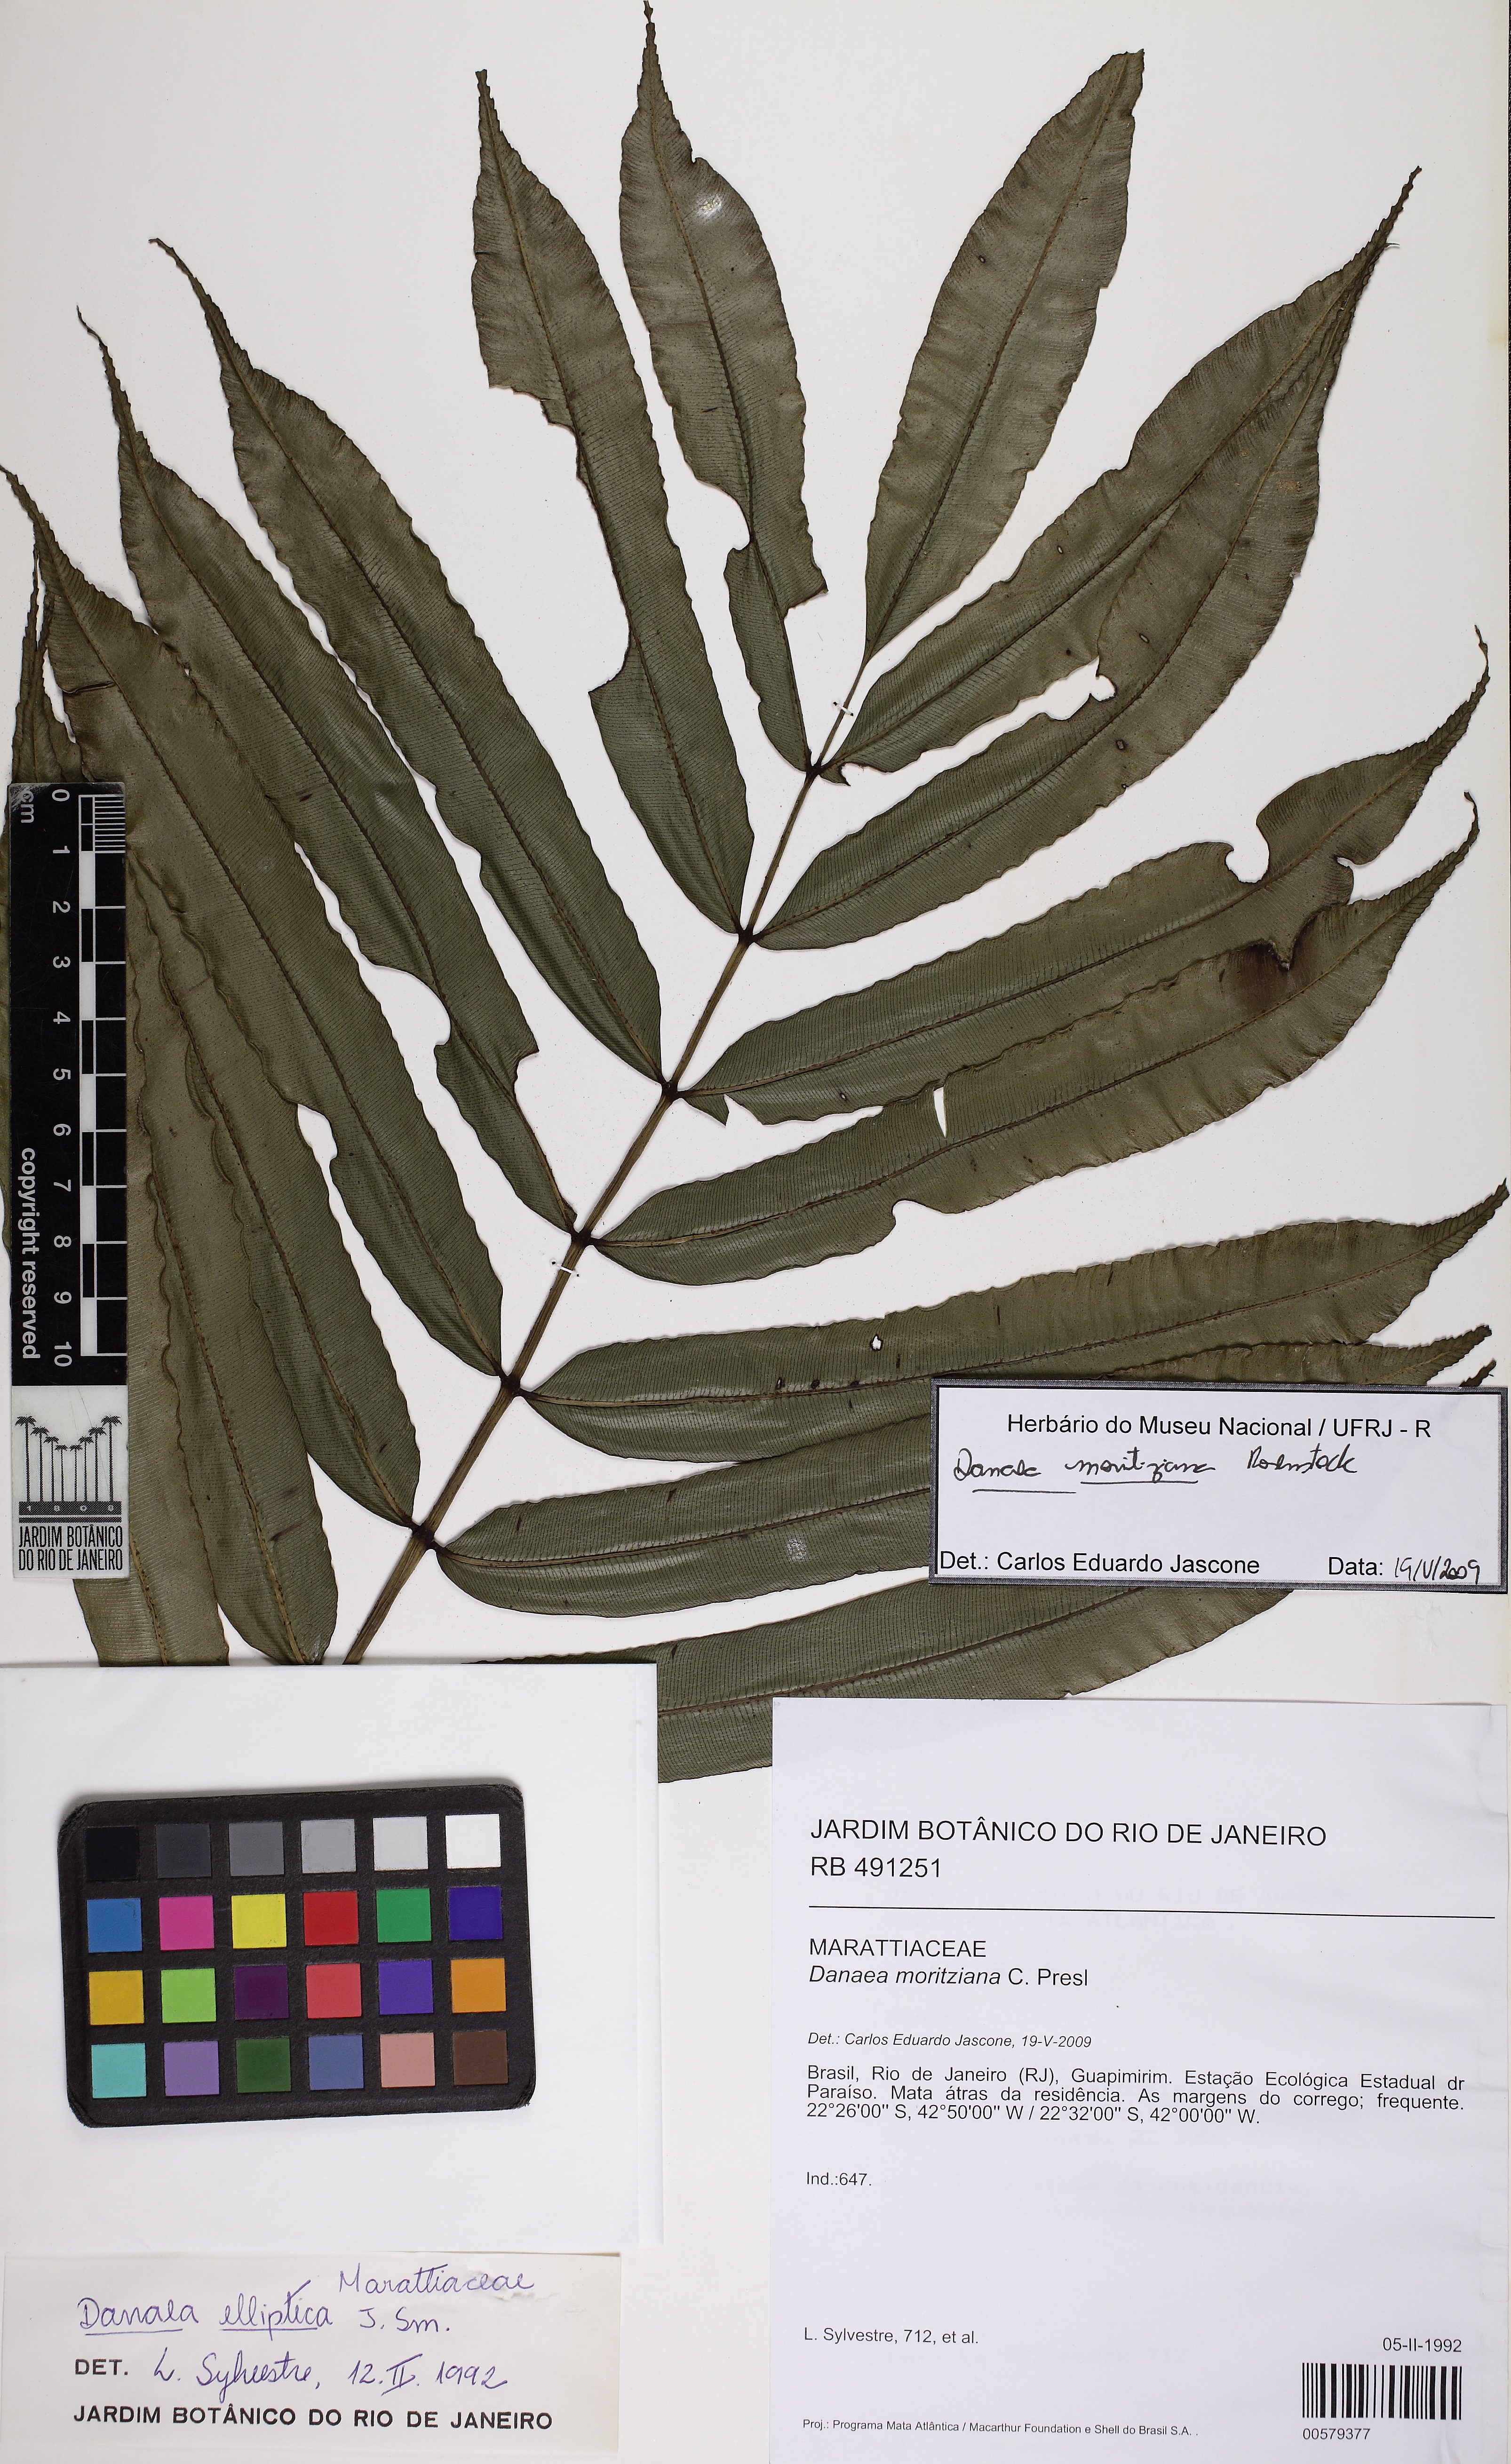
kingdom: Plantae
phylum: Tracheophyta
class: Polypodiopsida
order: Marattiales
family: Marattiaceae
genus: Danaea
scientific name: Danaea moritziana
